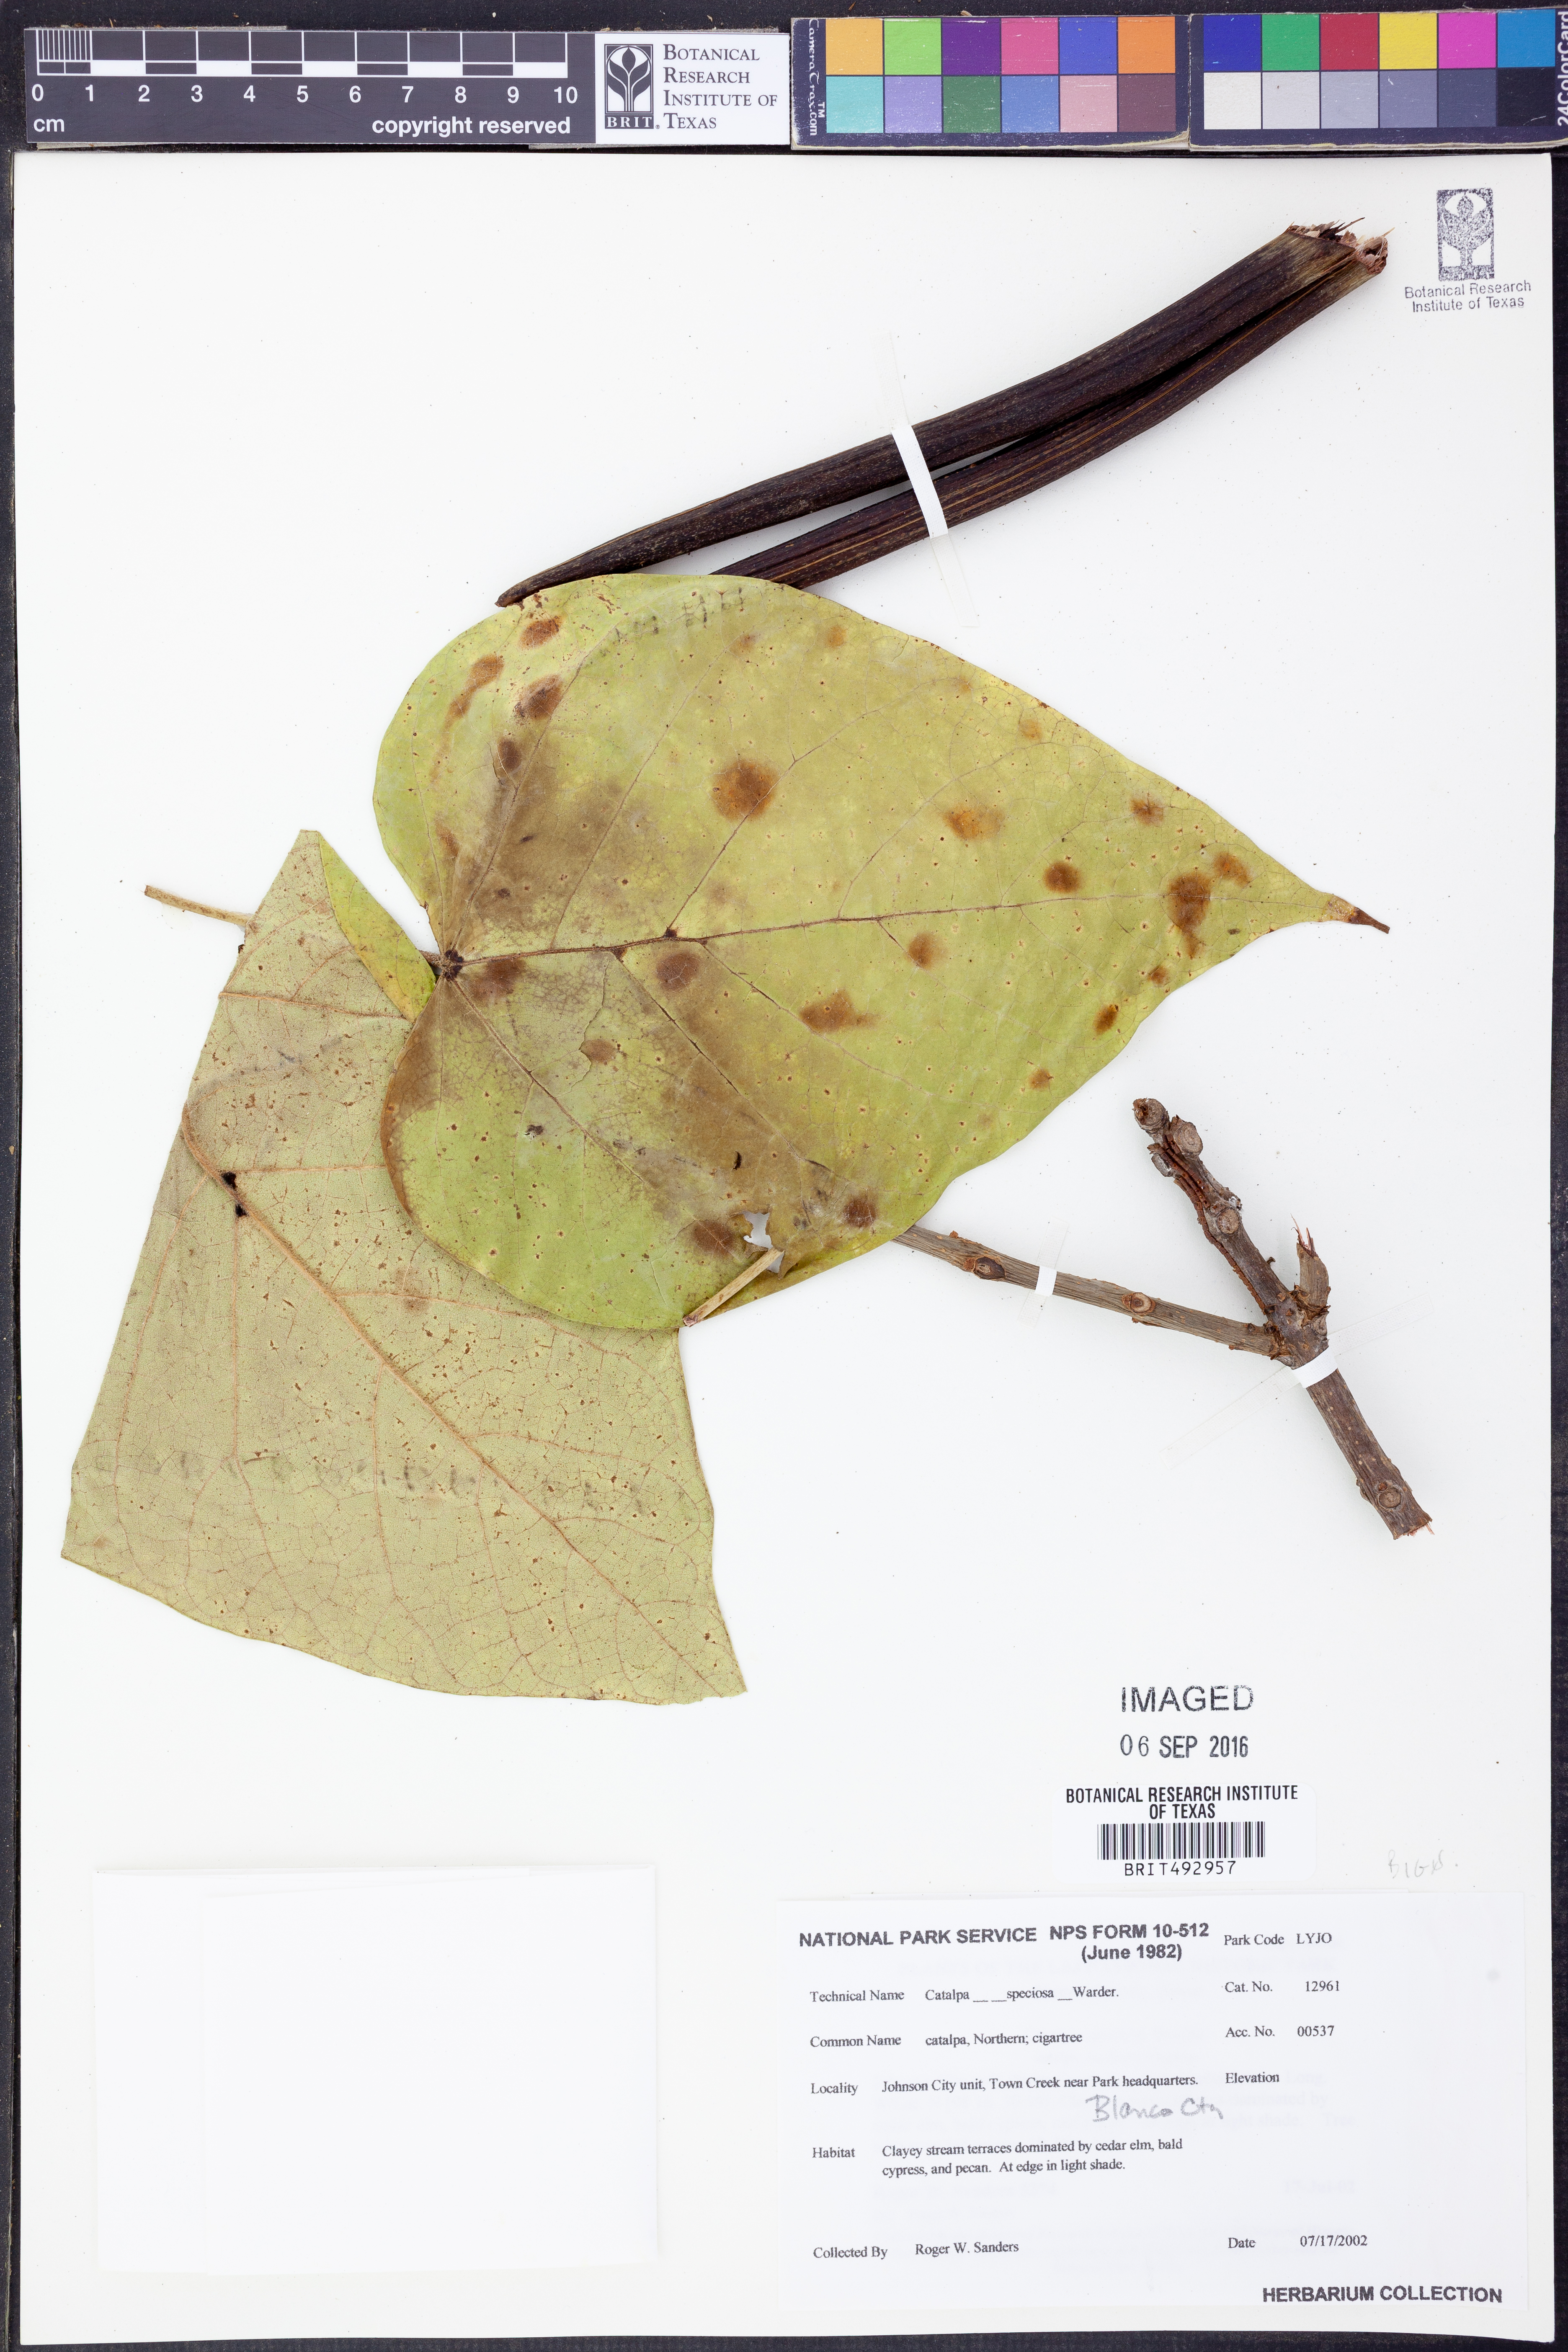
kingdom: Plantae
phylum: Tracheophyta
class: Magnoliopsida
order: Lamiales
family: Bignoniaceae
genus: Catalpa
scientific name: Catalpa speciosa
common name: Northern catalpa
